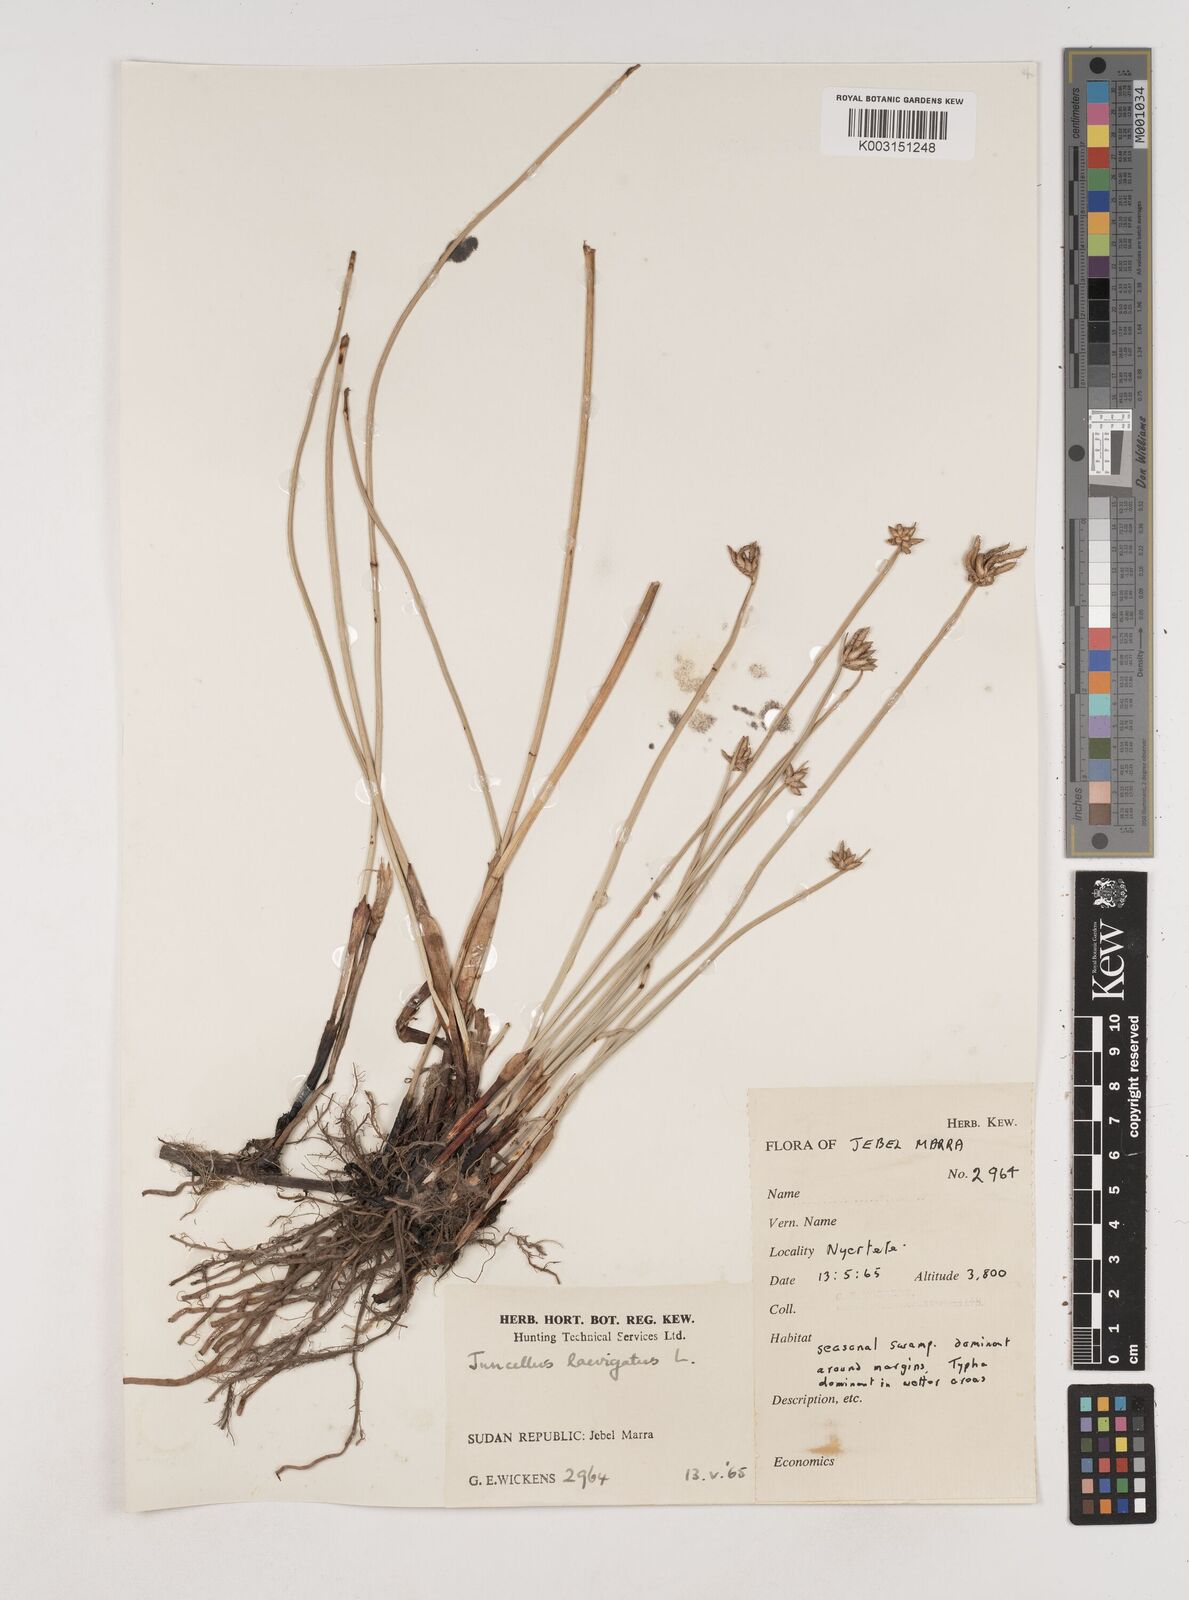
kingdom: Plantae
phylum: Tracheophyta
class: Liliopsida
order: Poales
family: Cyperaceae
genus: Cyperus
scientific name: Cyperus laevigatus
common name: Smooth flat sedge
